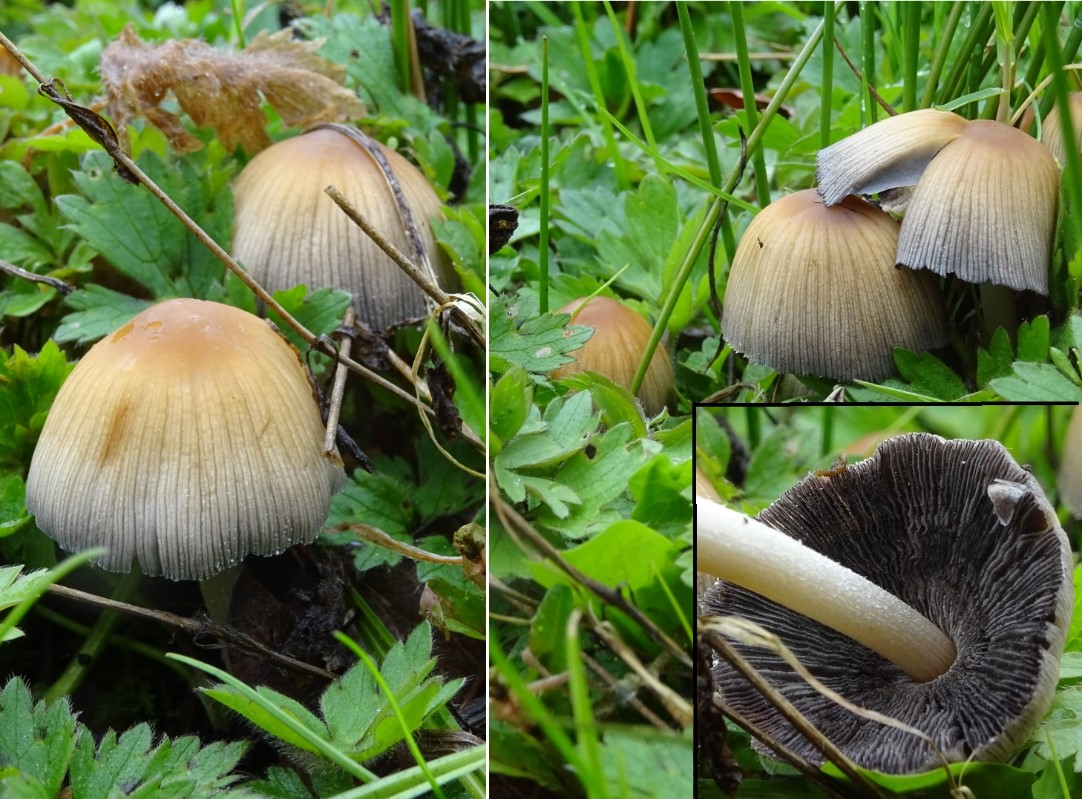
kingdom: Fungi
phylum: Basidiomycota
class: Agaricomycetes
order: Agaricales
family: Psathyrellaceae
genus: Coprinellus
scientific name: Coprinellus micaceus
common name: glimmer-blækhat
